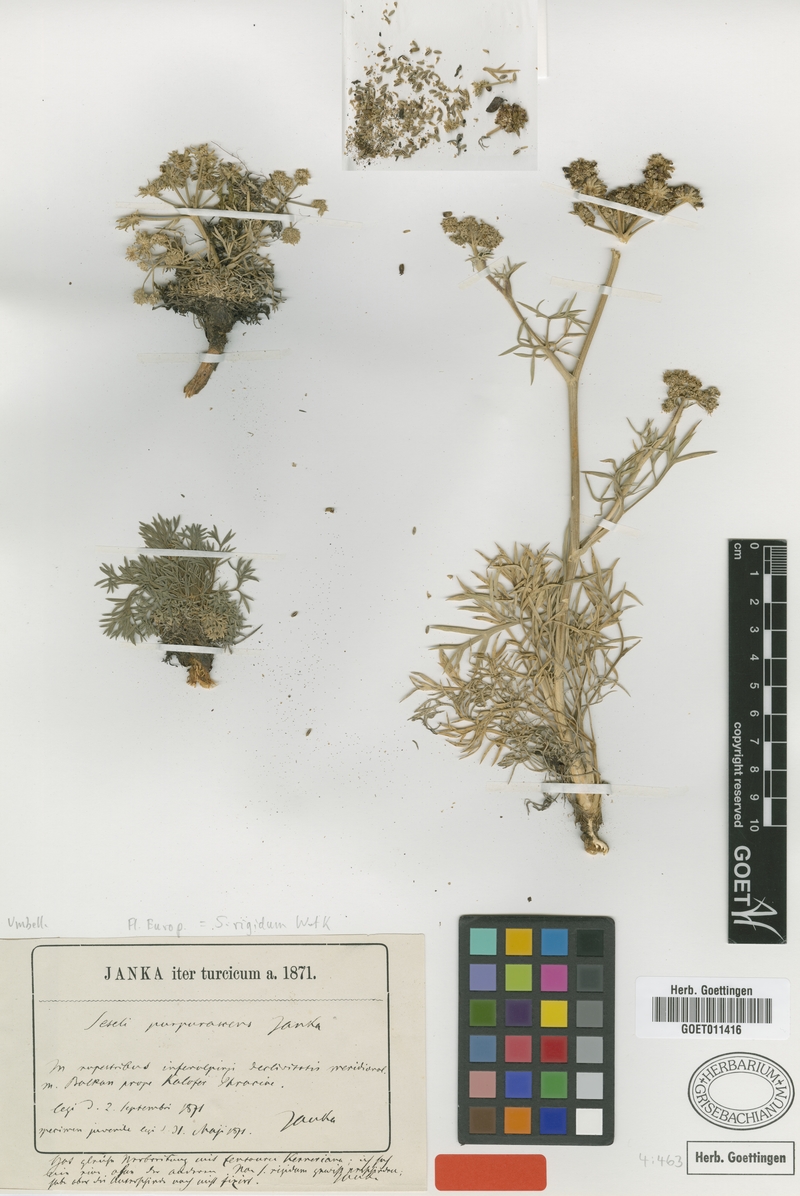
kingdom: Plantae
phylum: Tracheophyta
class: Magnoliopsida
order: Apiales
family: Apiaceae
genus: Seseli
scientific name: Seseli rigidum
